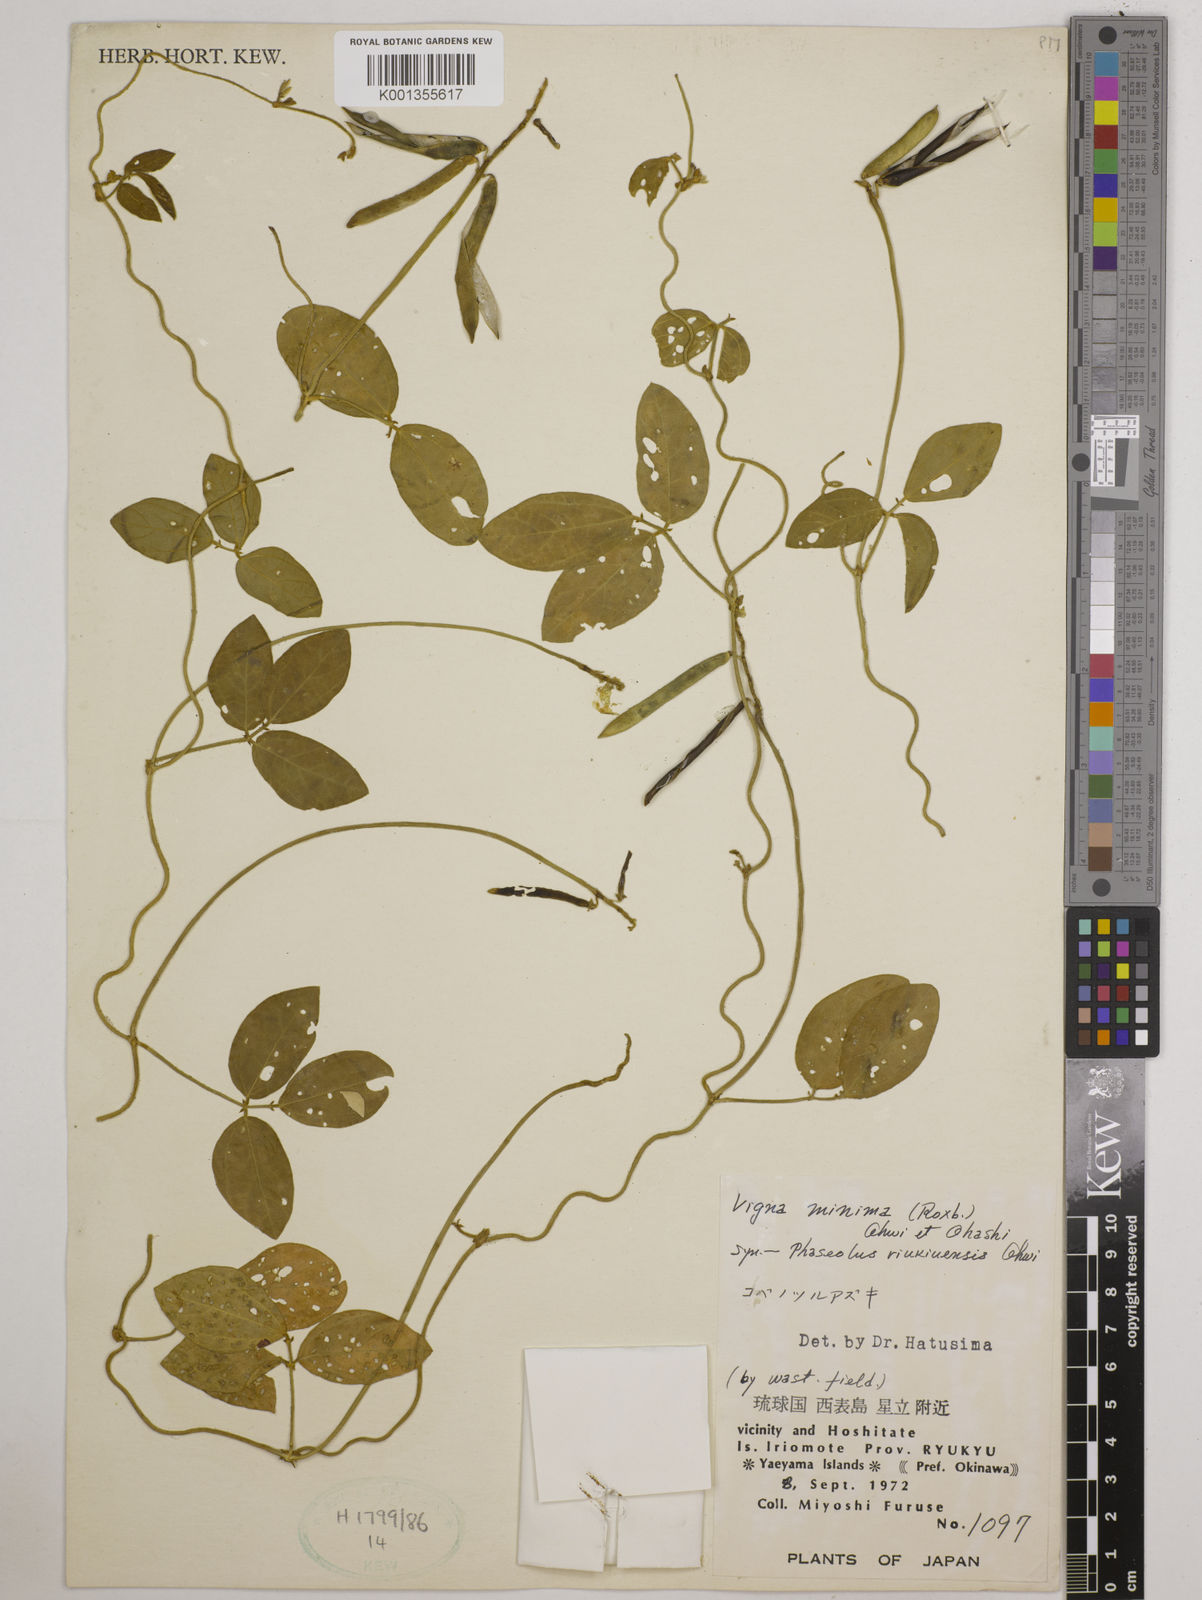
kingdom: Plantae
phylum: Tracheophyta
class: Magnoliopsida
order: Fabales
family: Fabaceae
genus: Vigna
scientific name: Vigna minima
